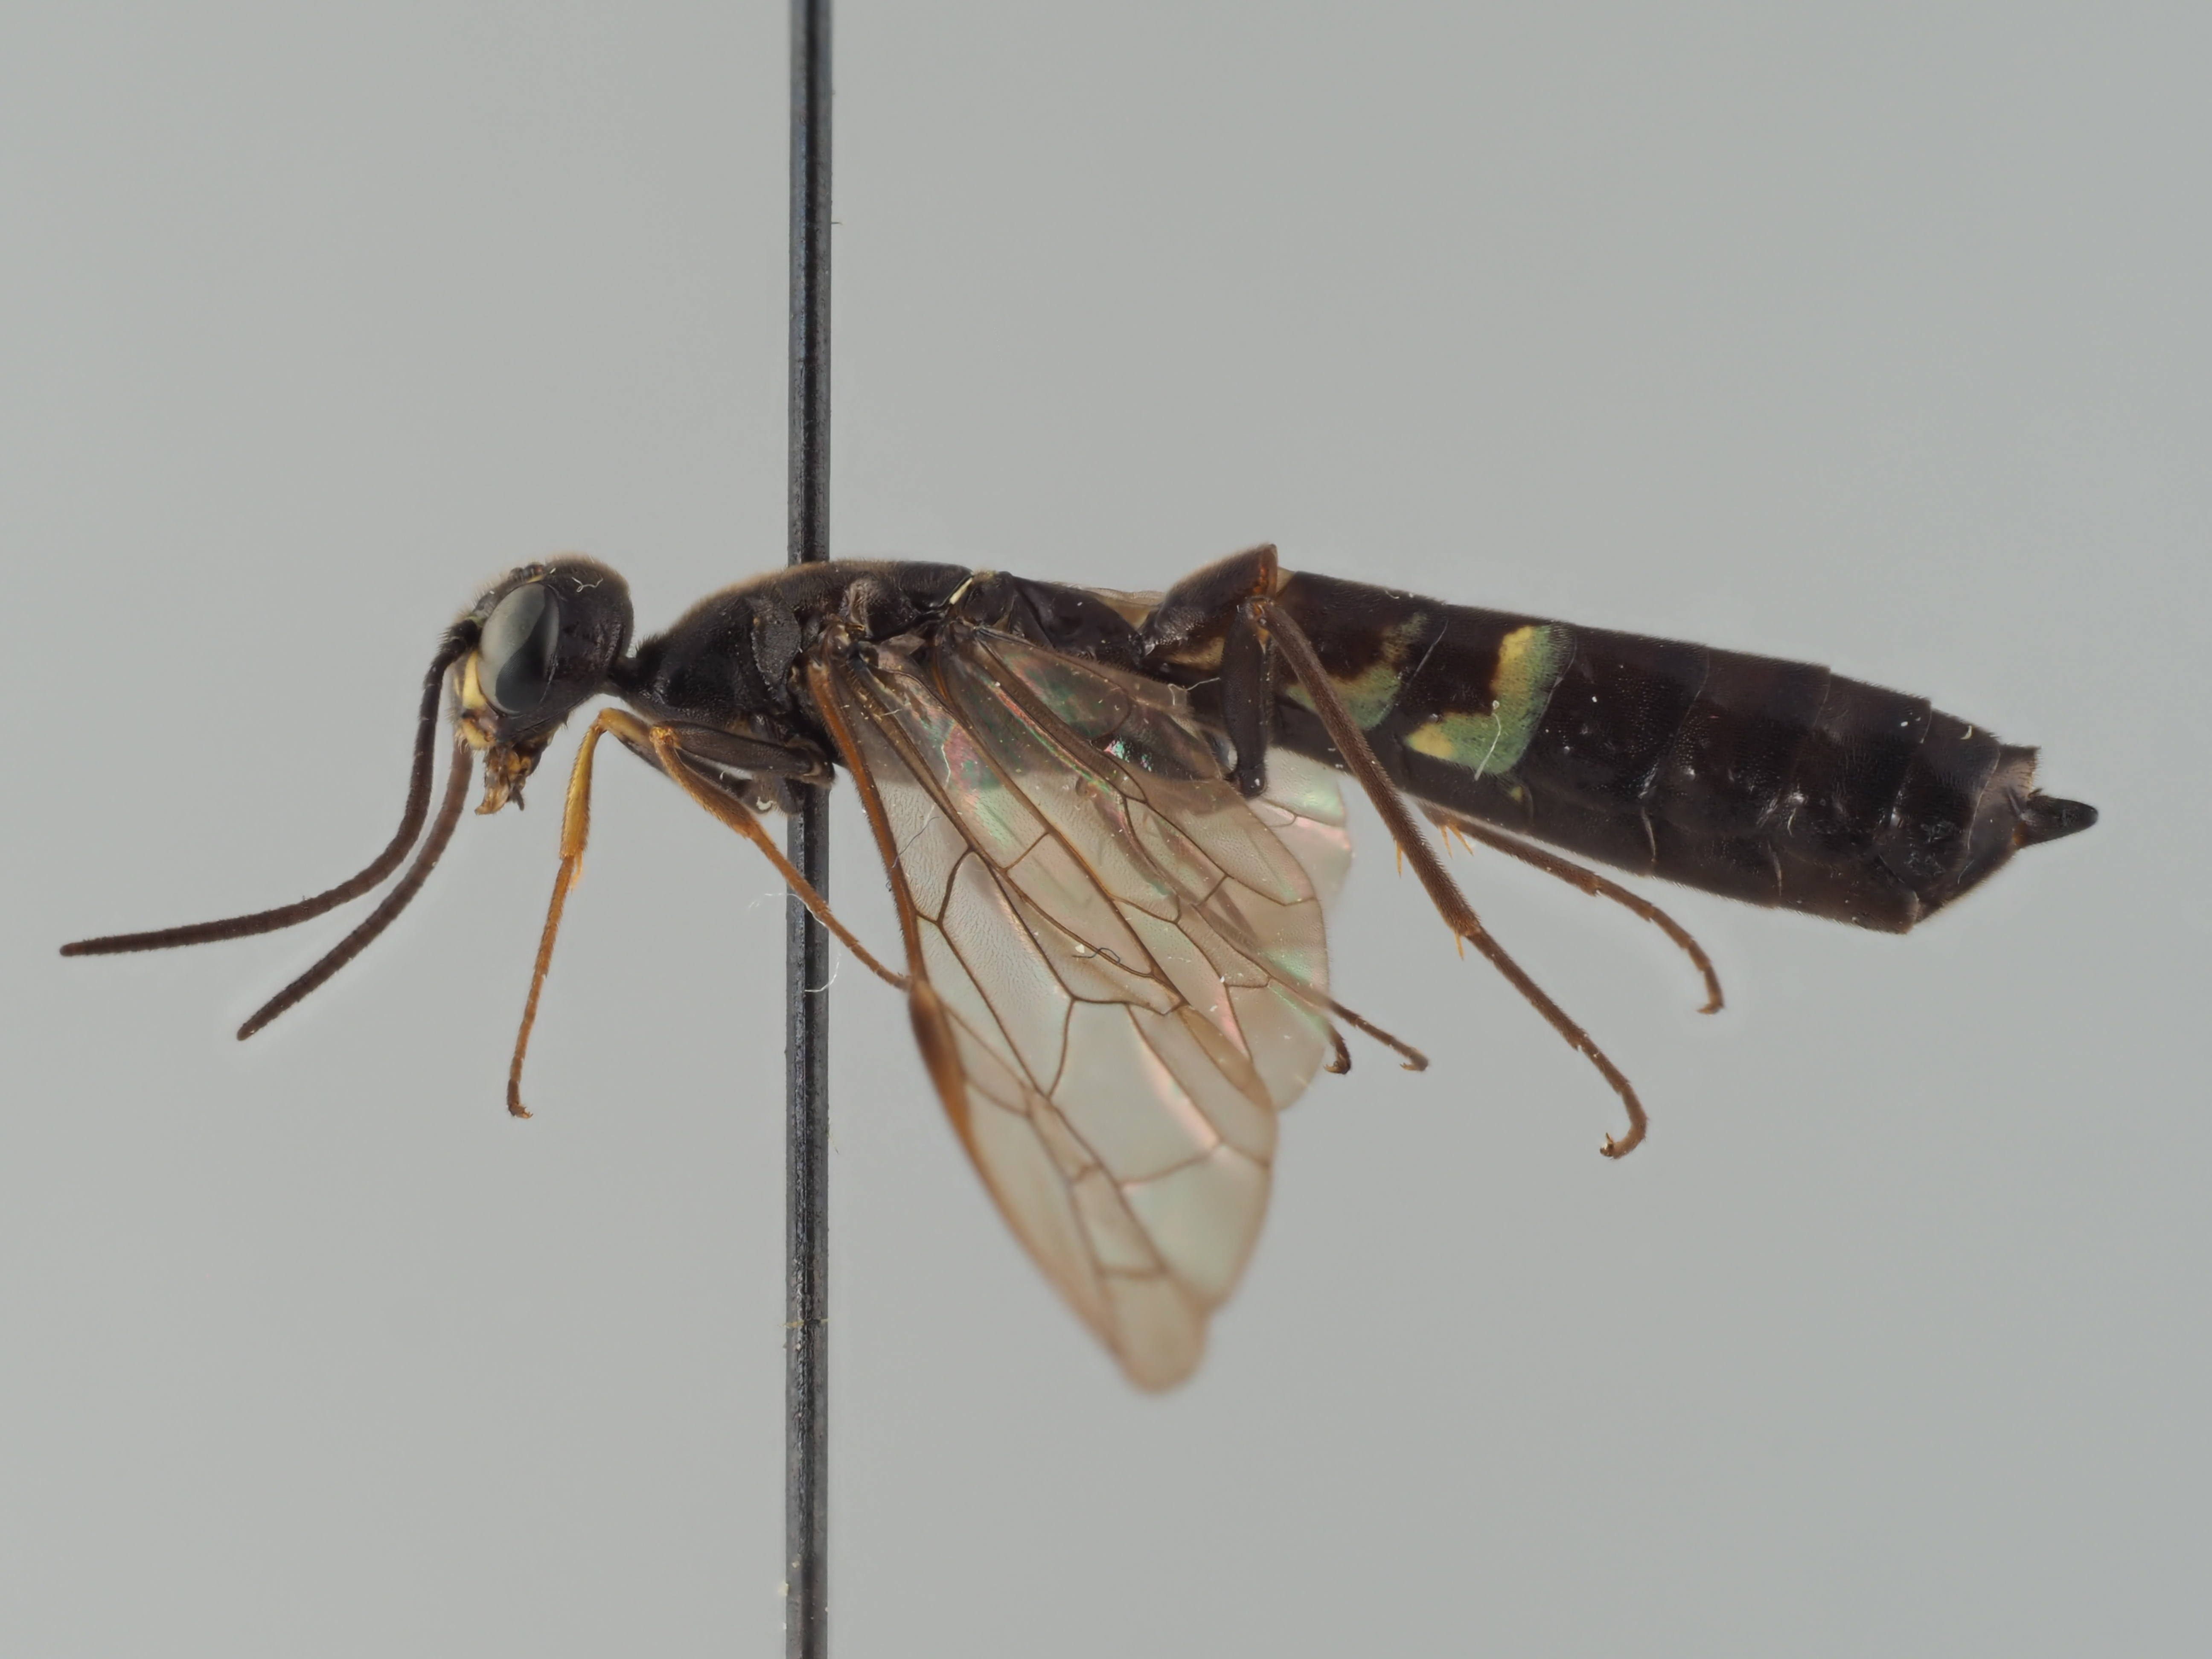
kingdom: Animalia
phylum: Arthropoda
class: Insecta
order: Hymenoptera
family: Cephidae
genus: Phylloecus
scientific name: Phylloecus etorofensis
